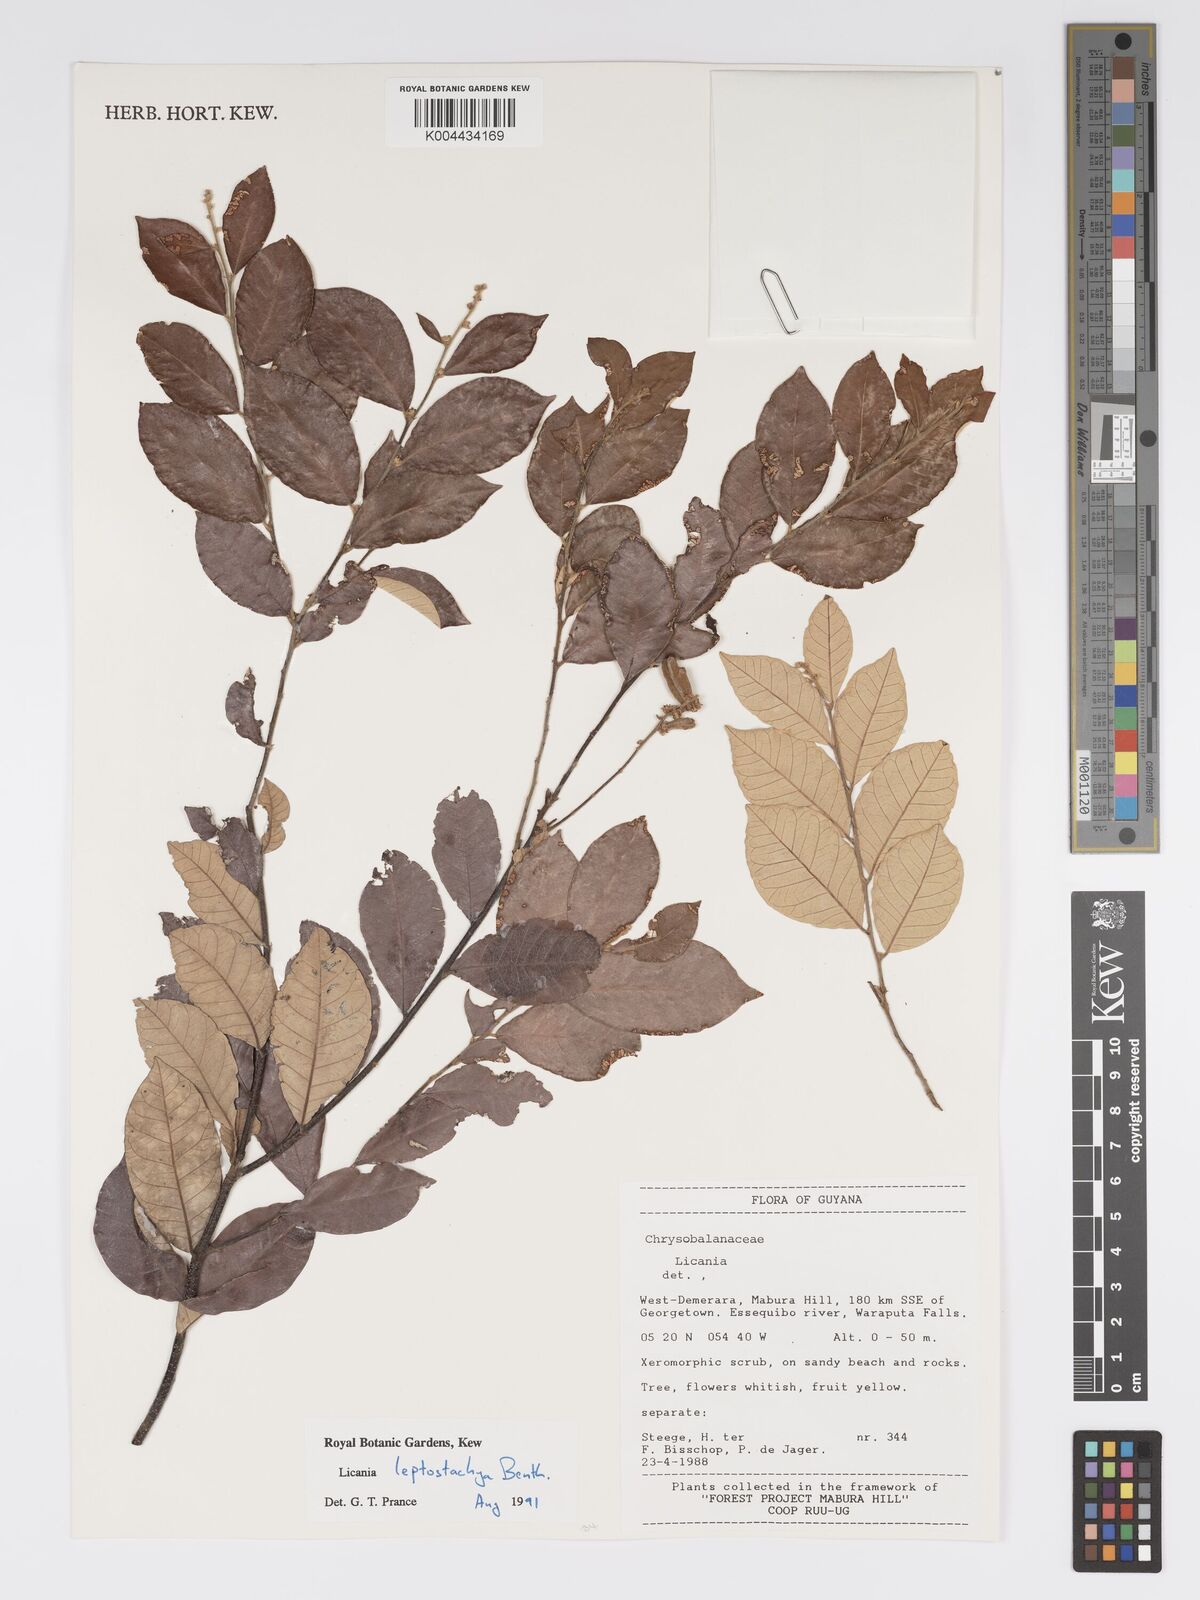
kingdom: Plantae
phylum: Tracheophyta
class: Magnoliopsida
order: Malpighiales
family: Chrysobalanaceae
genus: Licania
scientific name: Licania leptostachya
